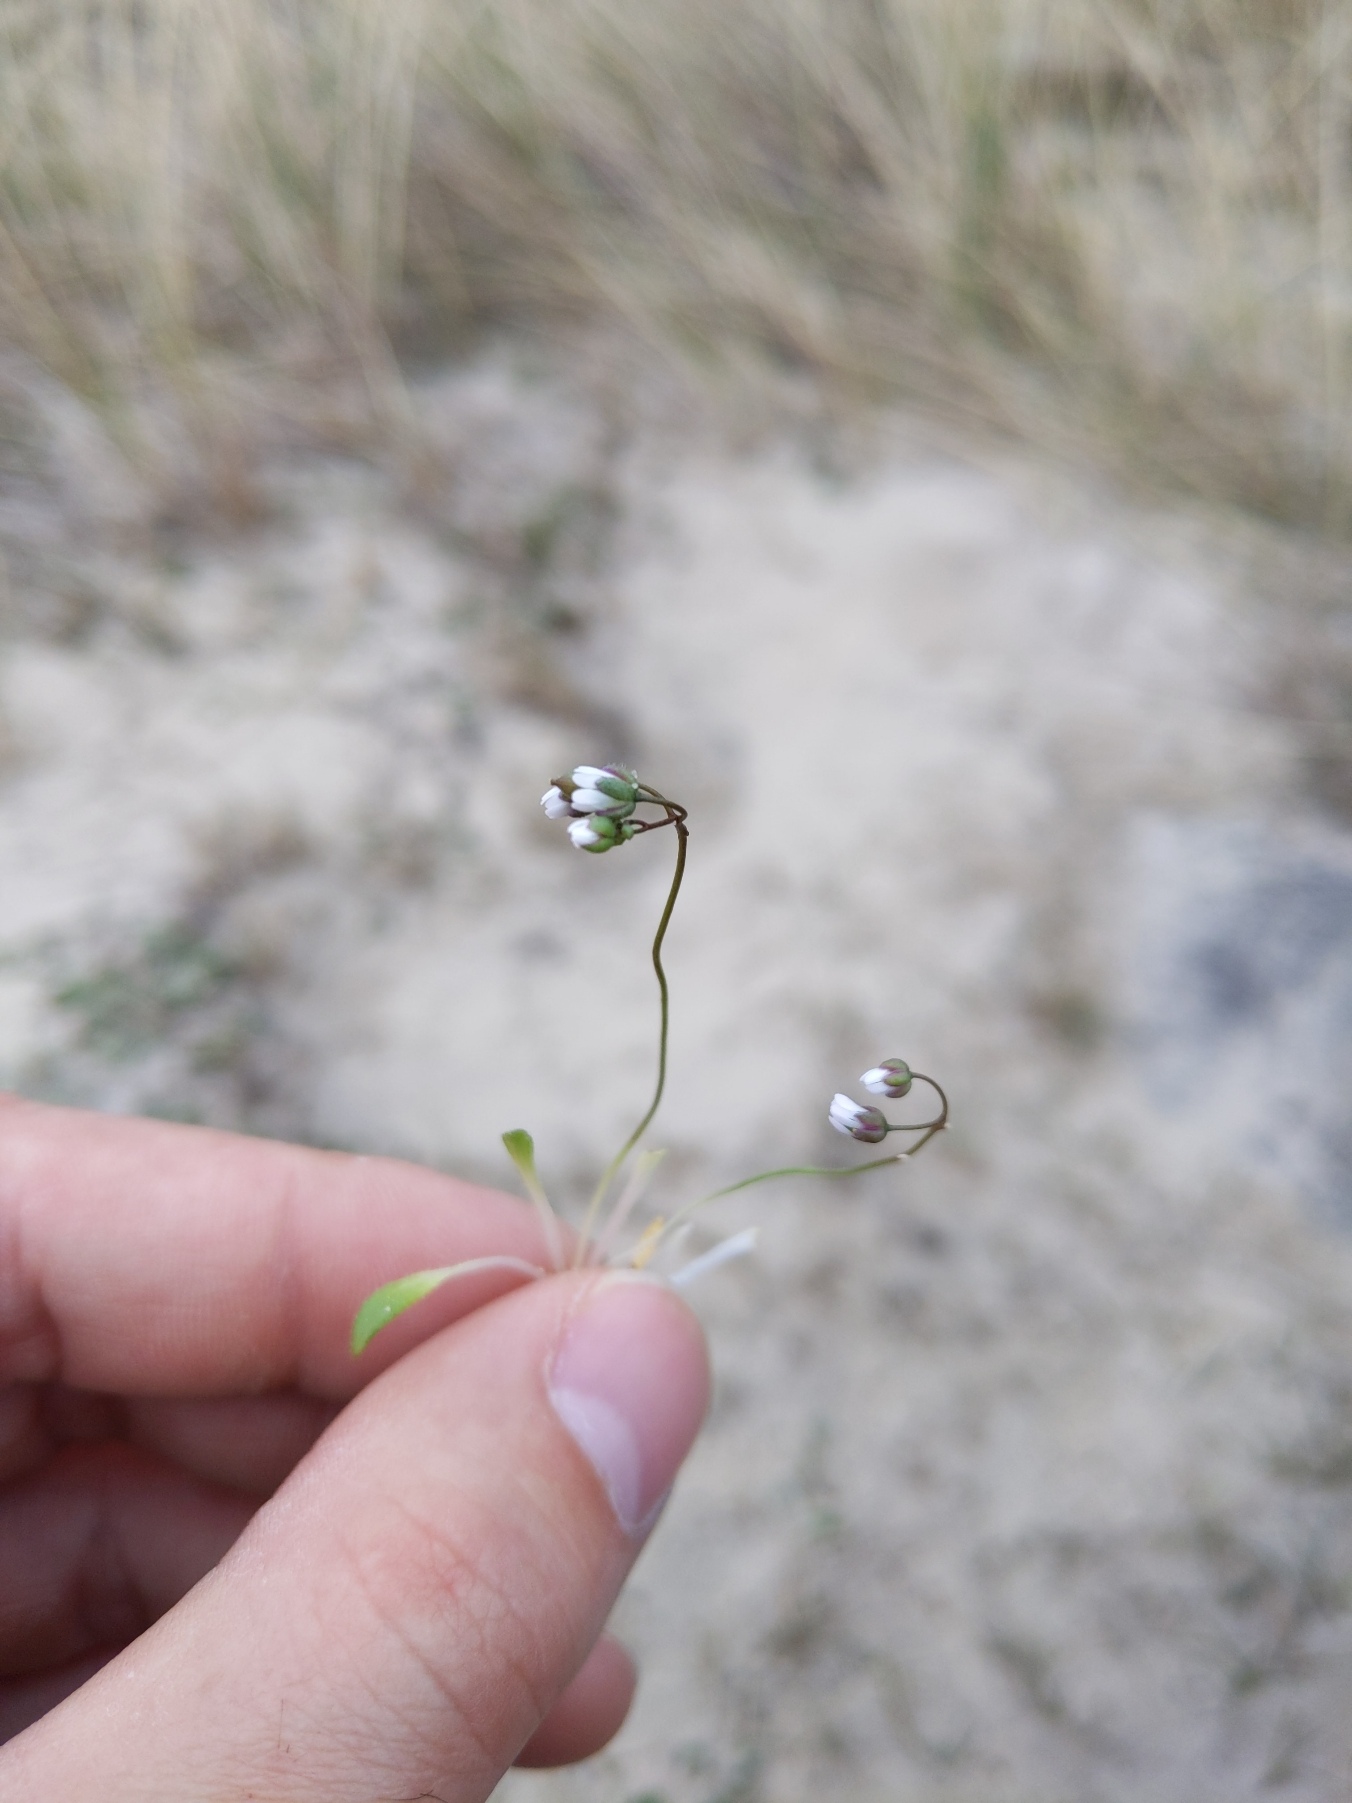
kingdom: Plantae
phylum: Tracheophyta
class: Magnoliopsida
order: Brassicales
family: Brassicaceae
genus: Draba
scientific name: Draba verna
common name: Vår-gæslingeblomst
